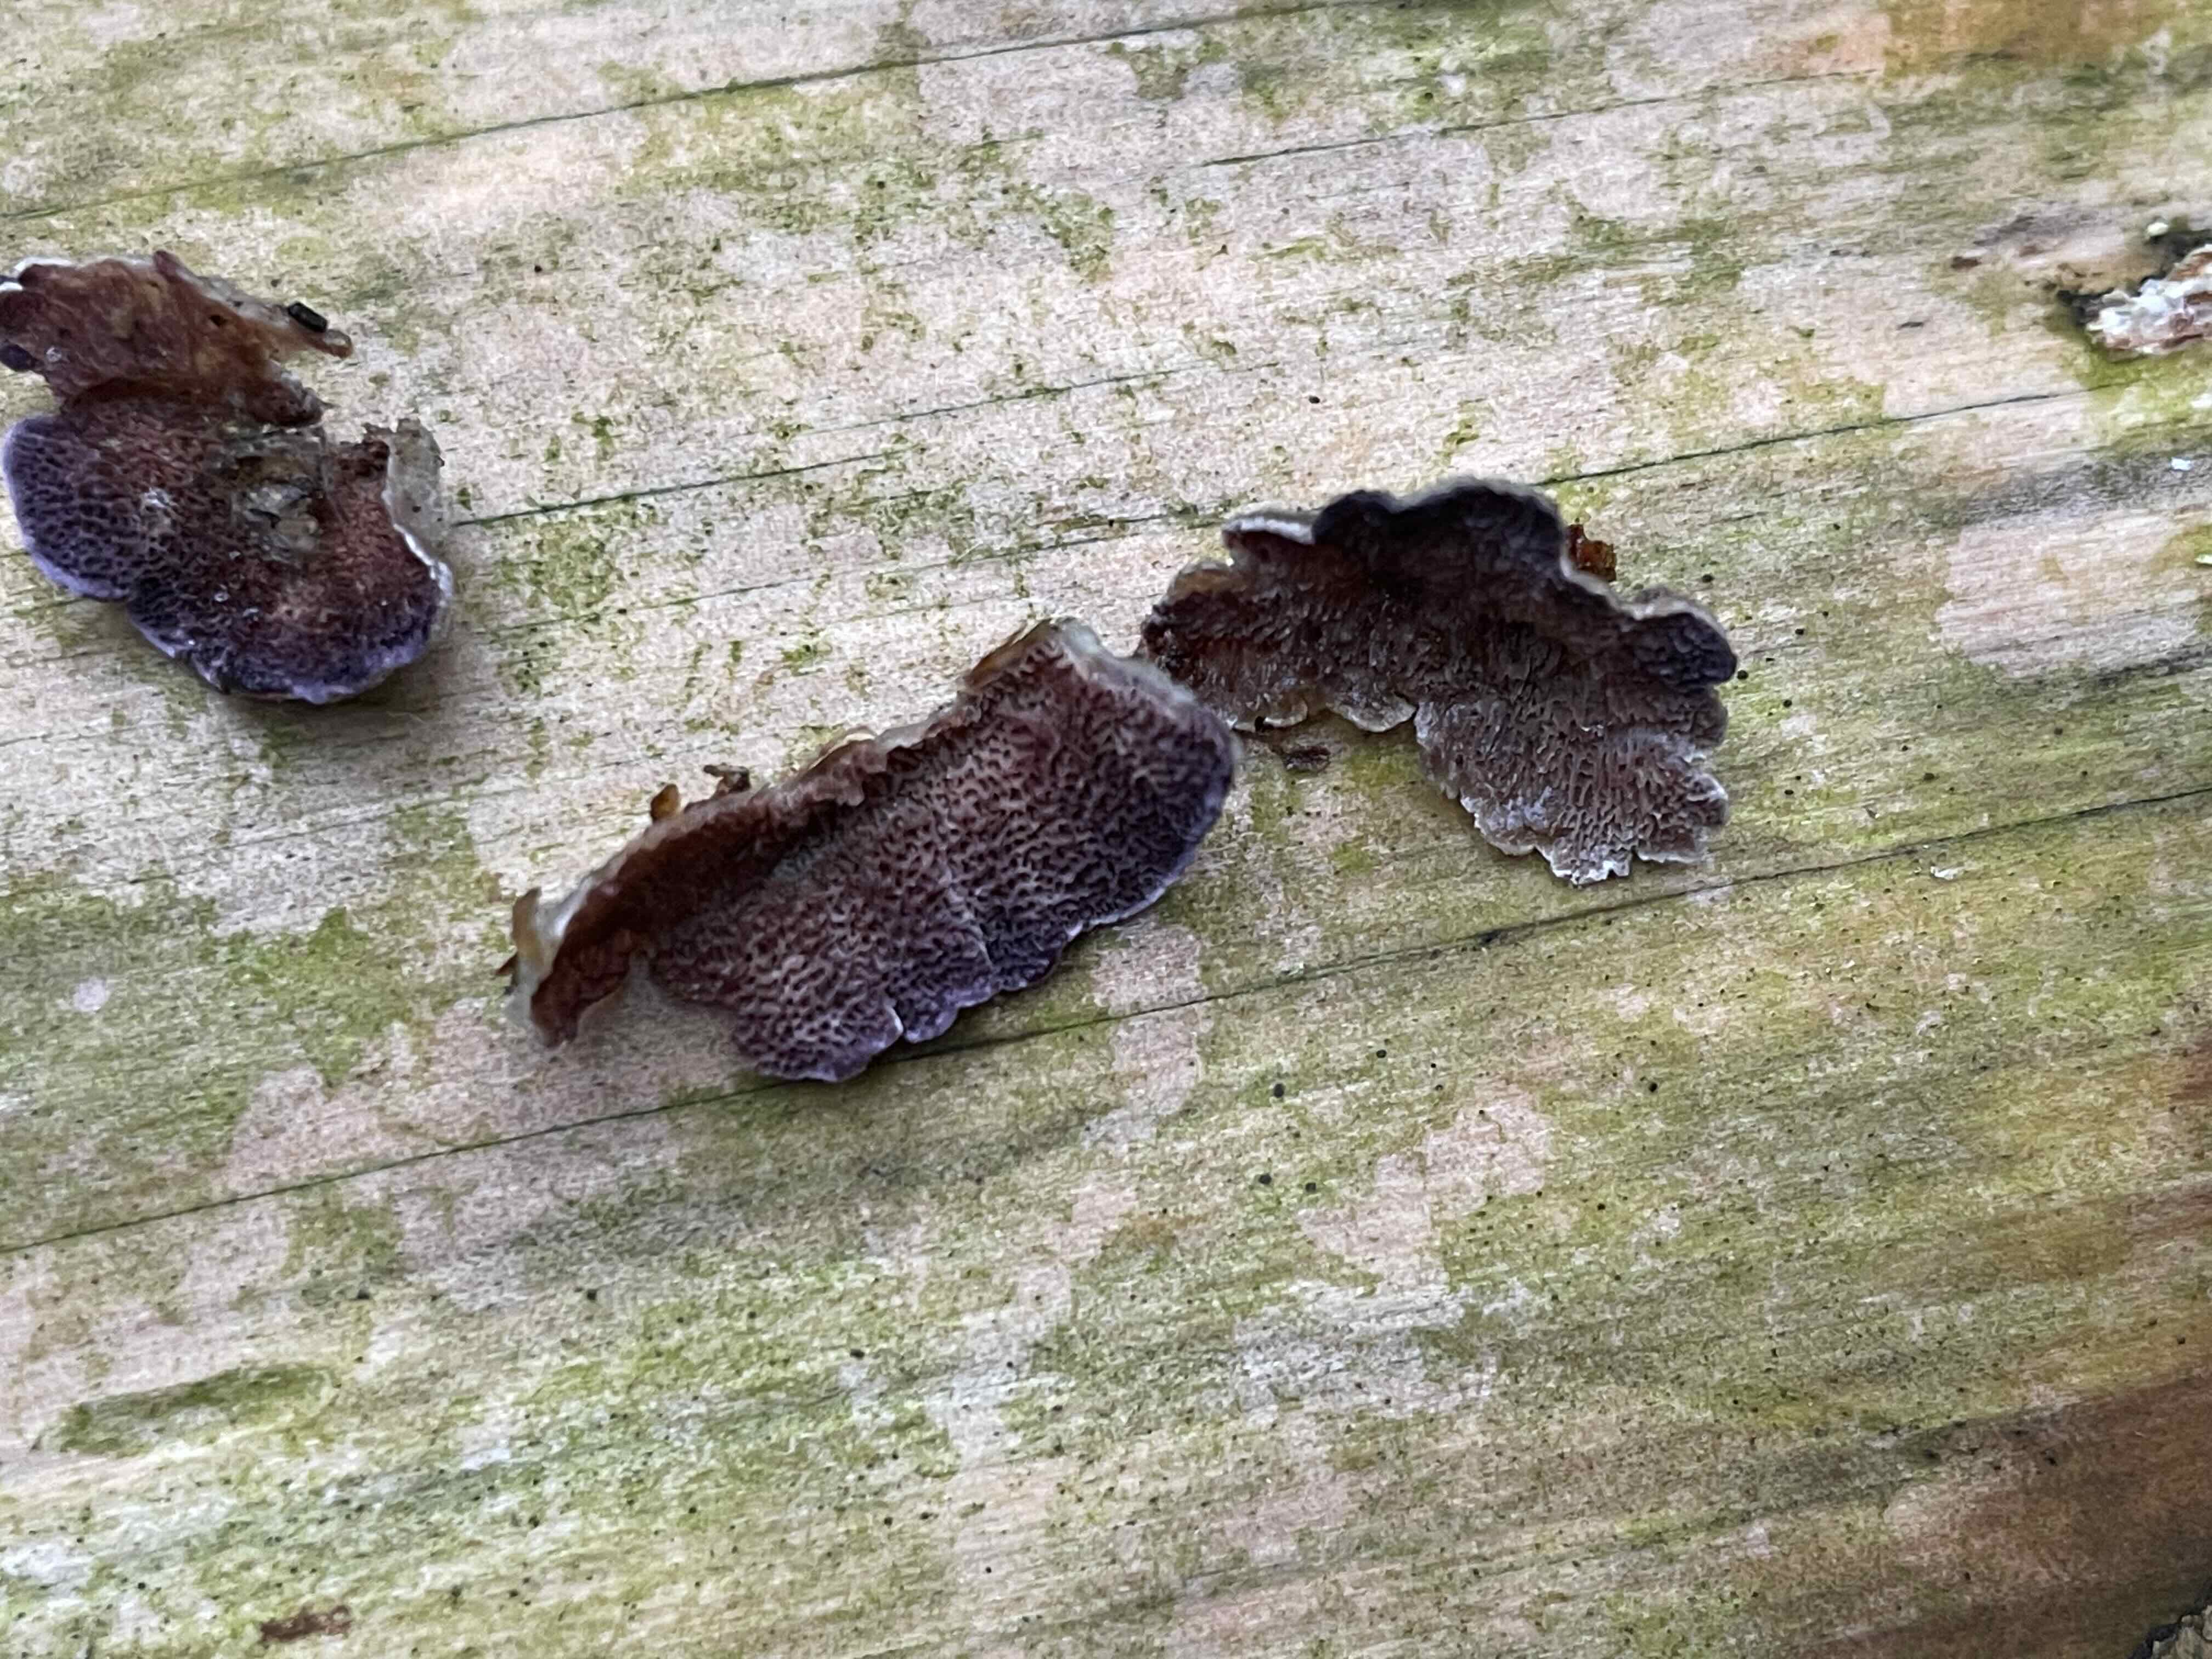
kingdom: Fungi
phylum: Basidiomycota
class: Agaricomycetes
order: Hymenochaetales
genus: Trichaptum
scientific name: Trichaptum abietinum
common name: almindelig violporesvamp
